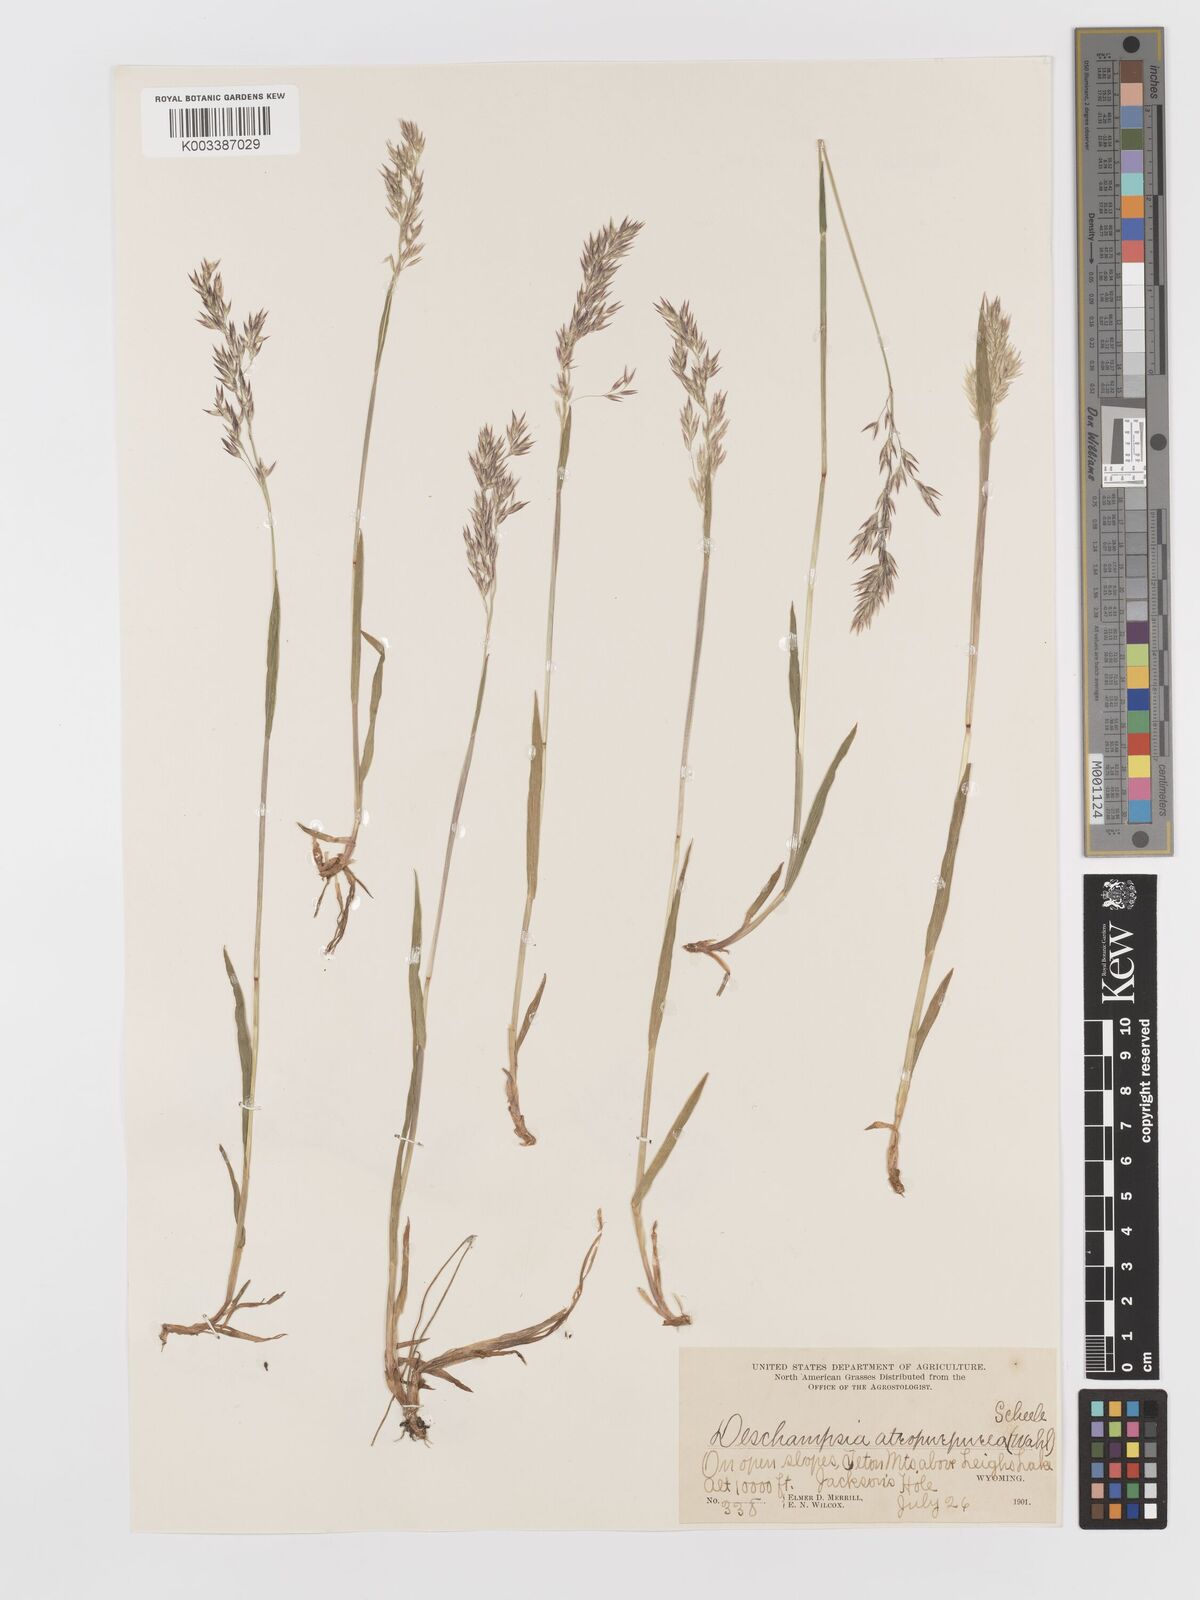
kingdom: Plantae
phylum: Tracheophyta
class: Liliopsida
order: Poales
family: Poaceae
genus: Vahlodea
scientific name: Vahlodea atropurpurea
